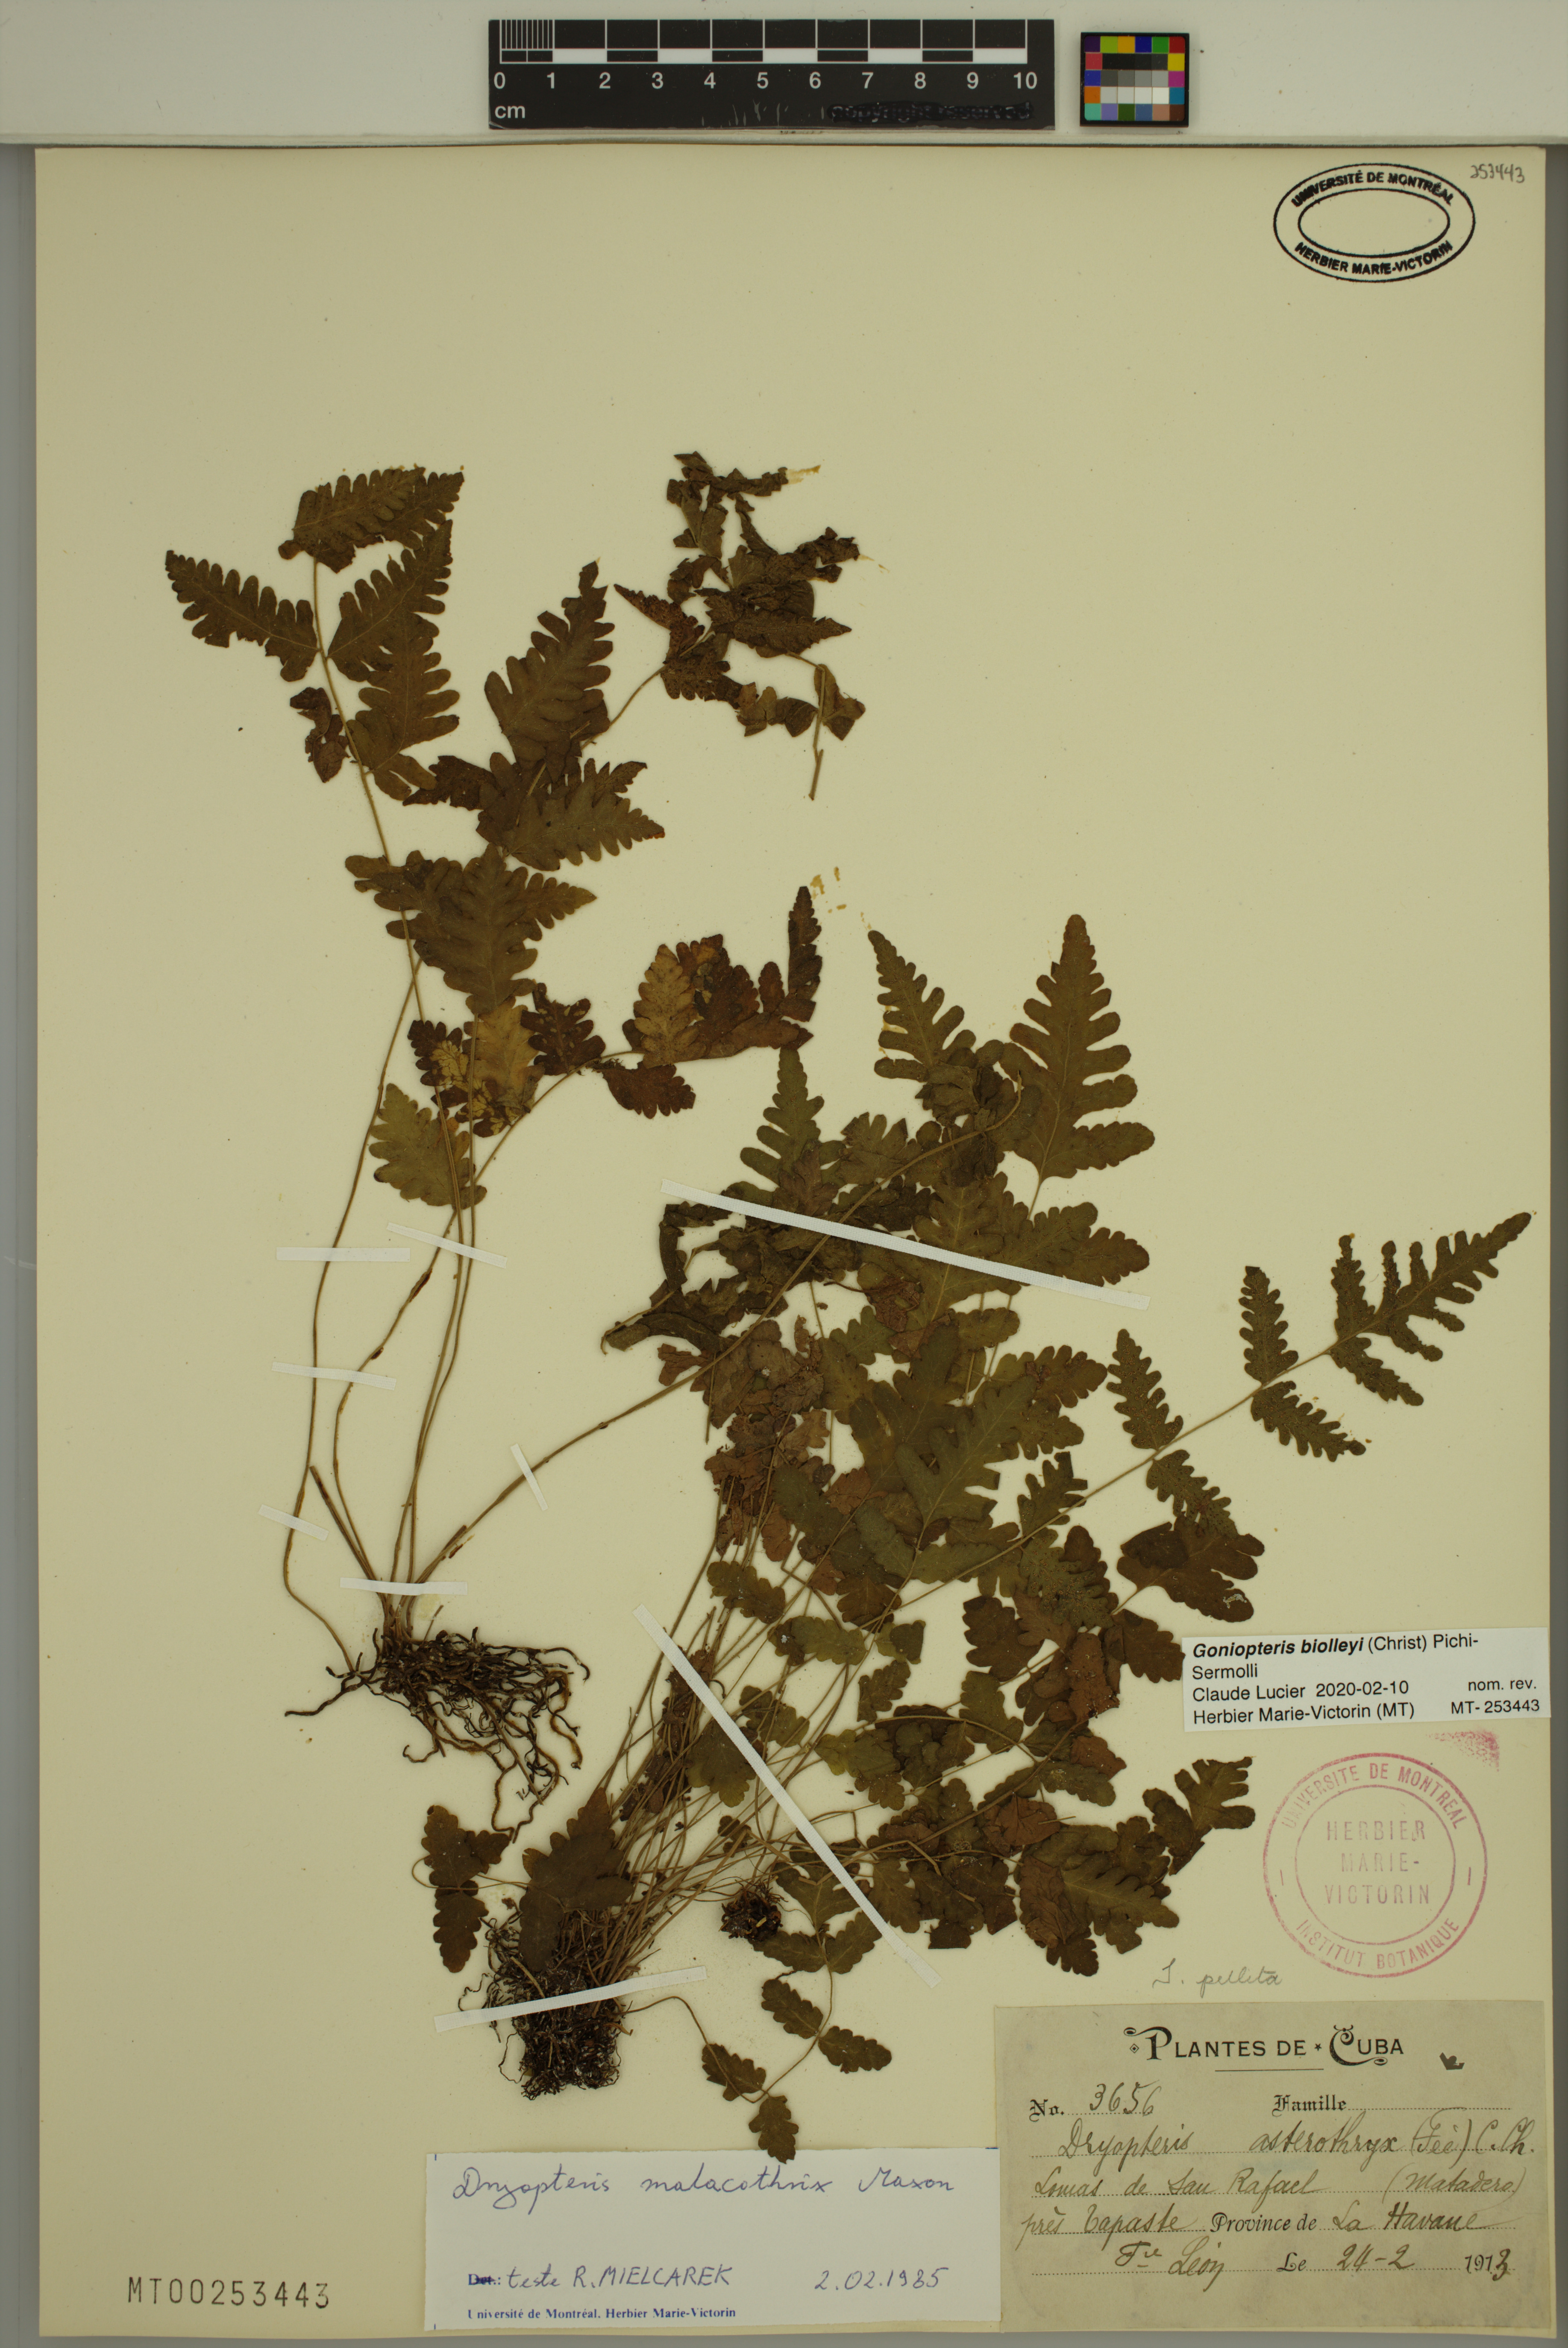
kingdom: Plantae
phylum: Tracheophyta
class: Polypodiopsida
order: Polypodiales
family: Thelypteridaceae
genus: Goniopteris
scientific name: Goniopteris biolleyi
